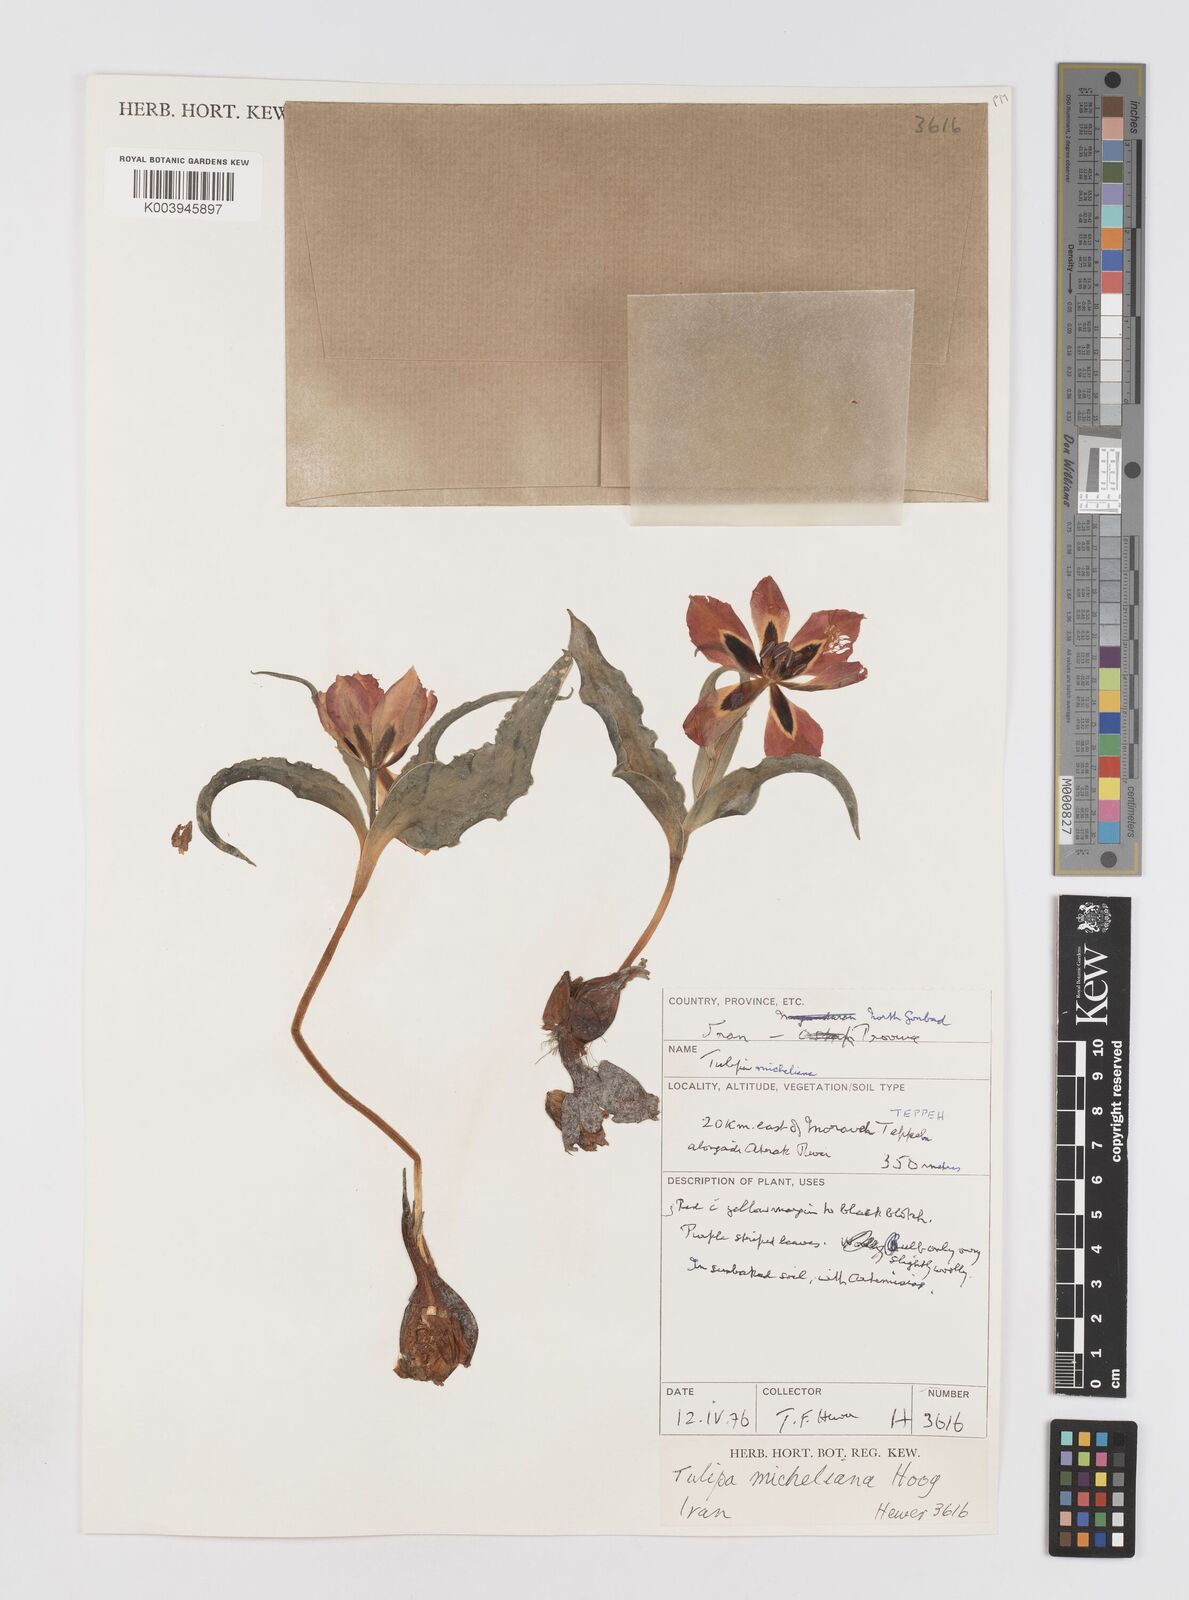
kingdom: Plantae
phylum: Tracheophyta
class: Liliopsida
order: Liliales
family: Liliaceae
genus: Tulipa
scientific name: Tulipa undulatifolia
